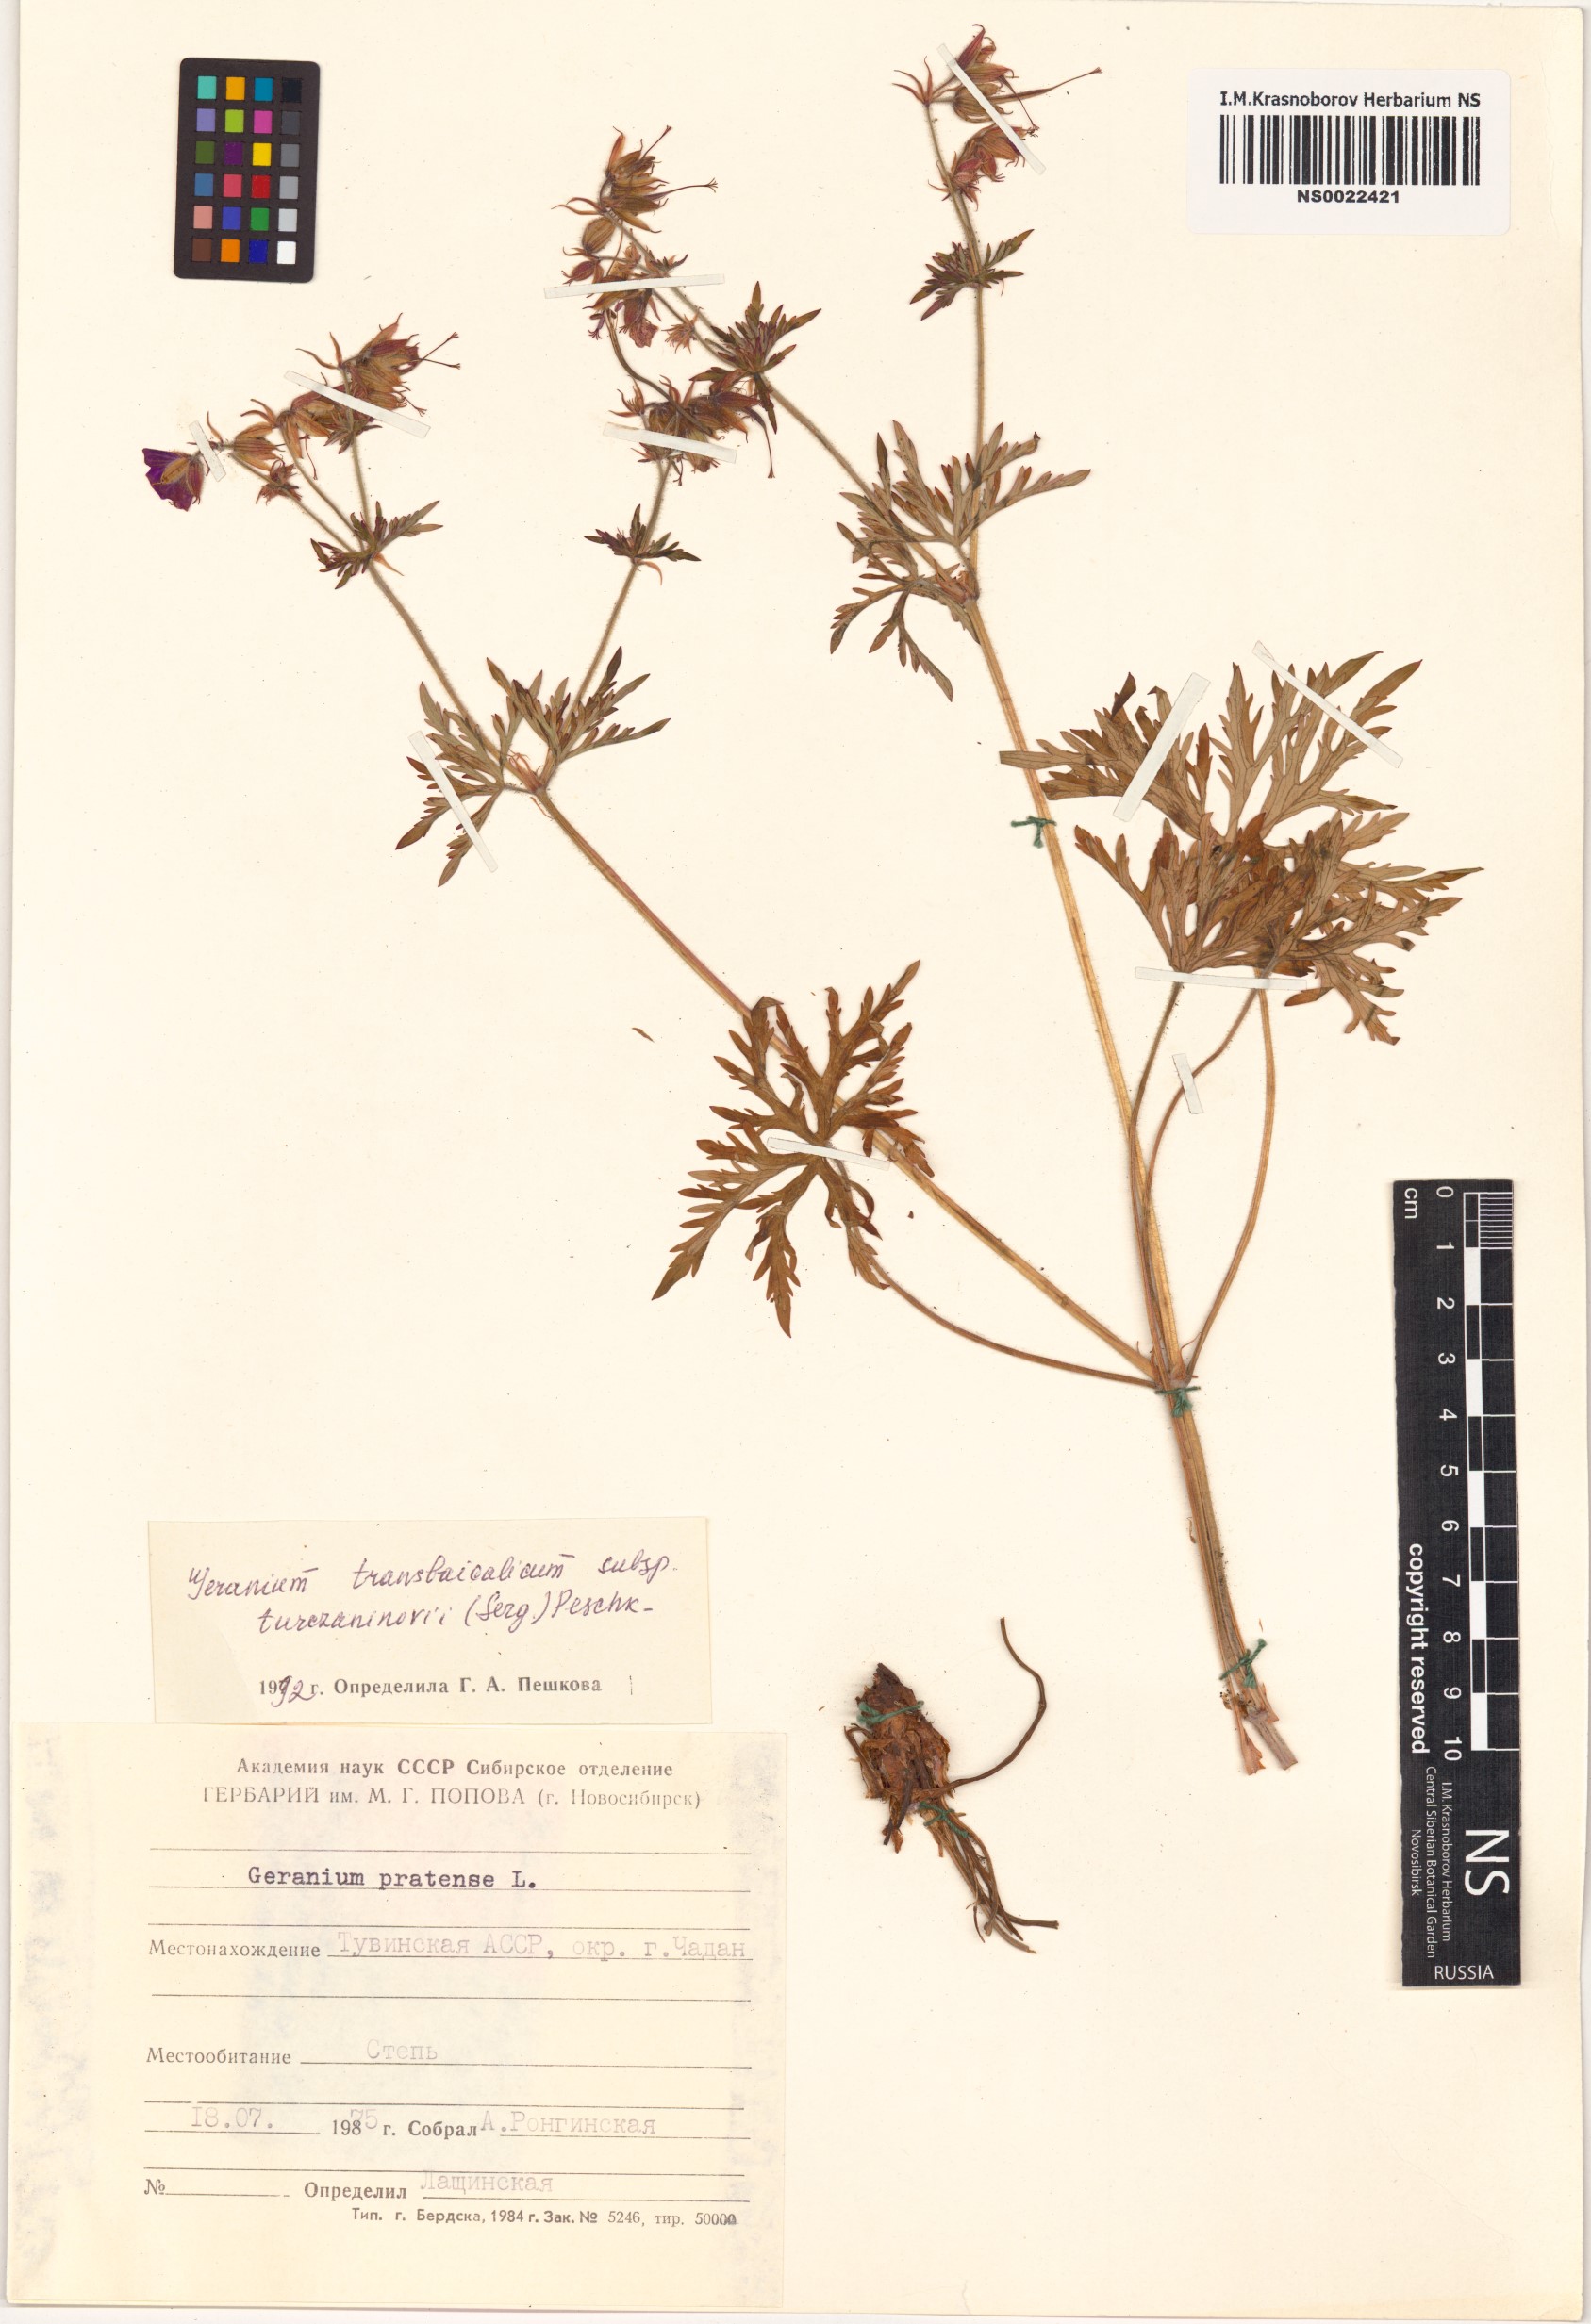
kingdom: Plantae
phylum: Tracheophyta
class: Magnoliopsida
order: Geraniales
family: Geraniaceae
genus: Geranium
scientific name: Geranium pratense
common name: Meadow crane's-bill
